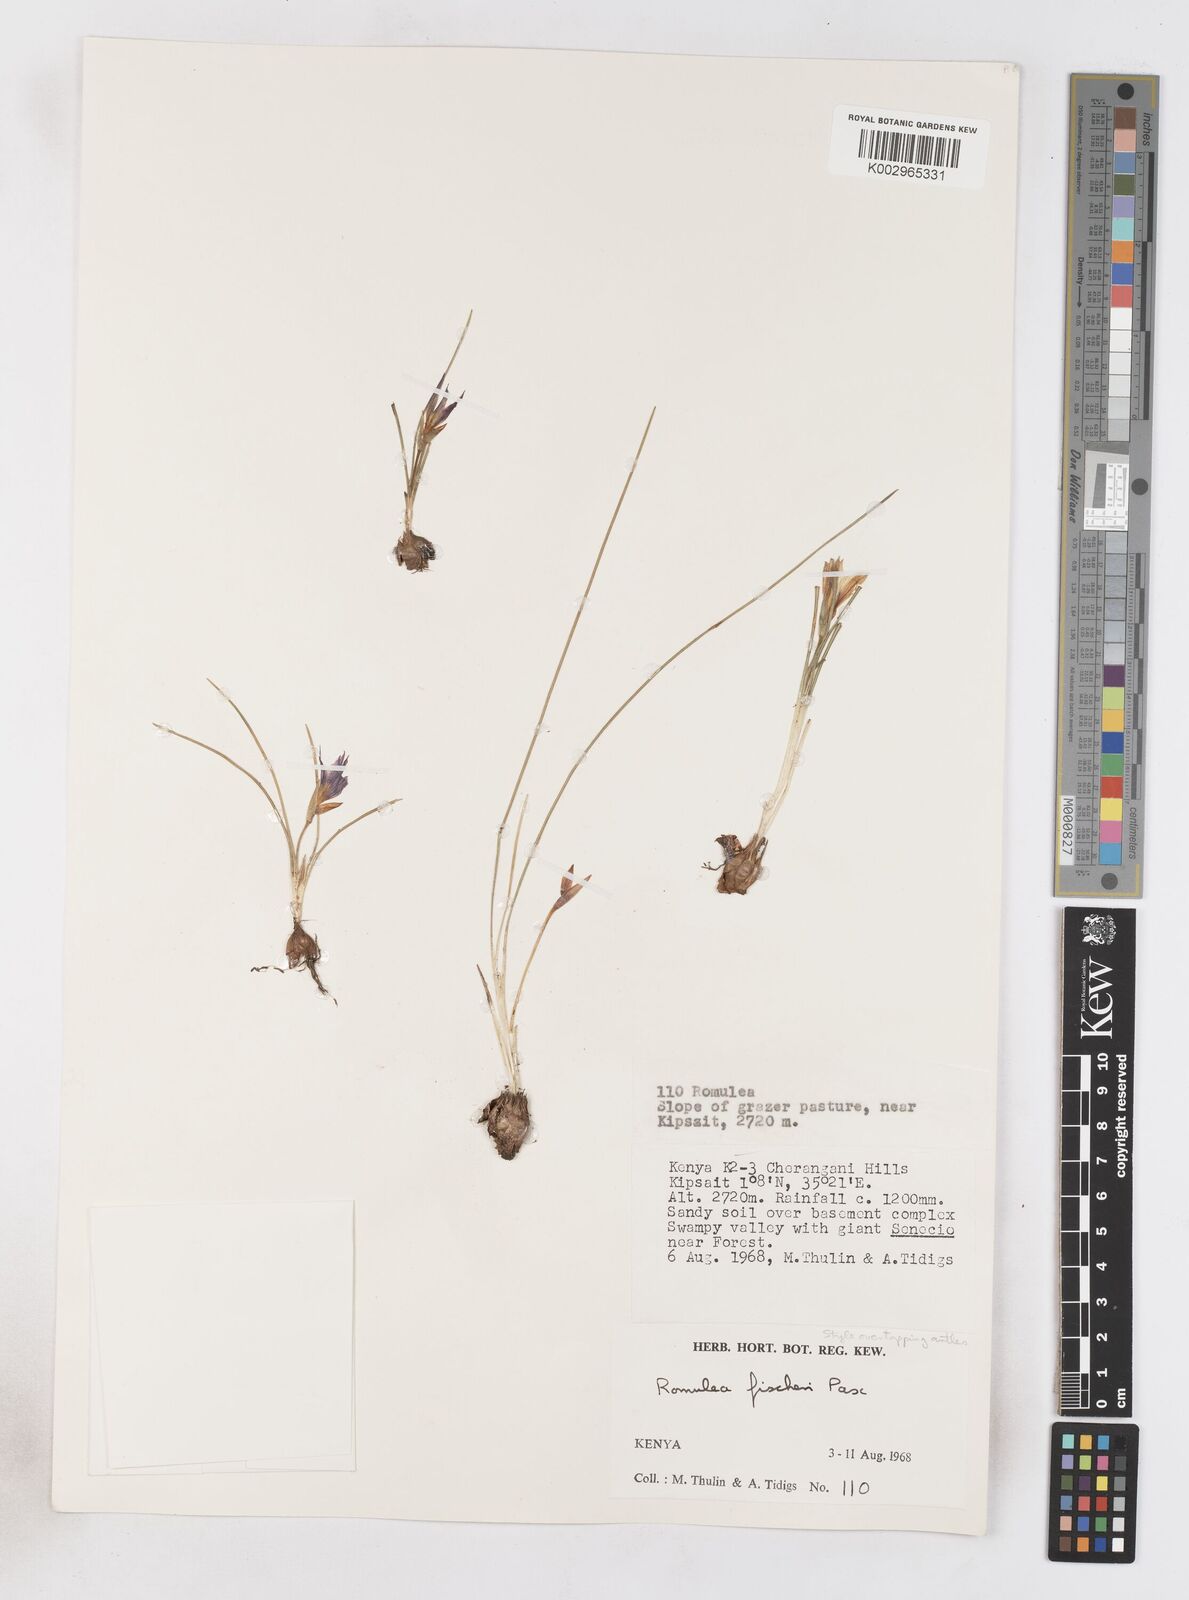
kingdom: Plantae
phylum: Tracheophyta
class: Liliopsida
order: Asparagales
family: Iridaceae
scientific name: Iridaceae
